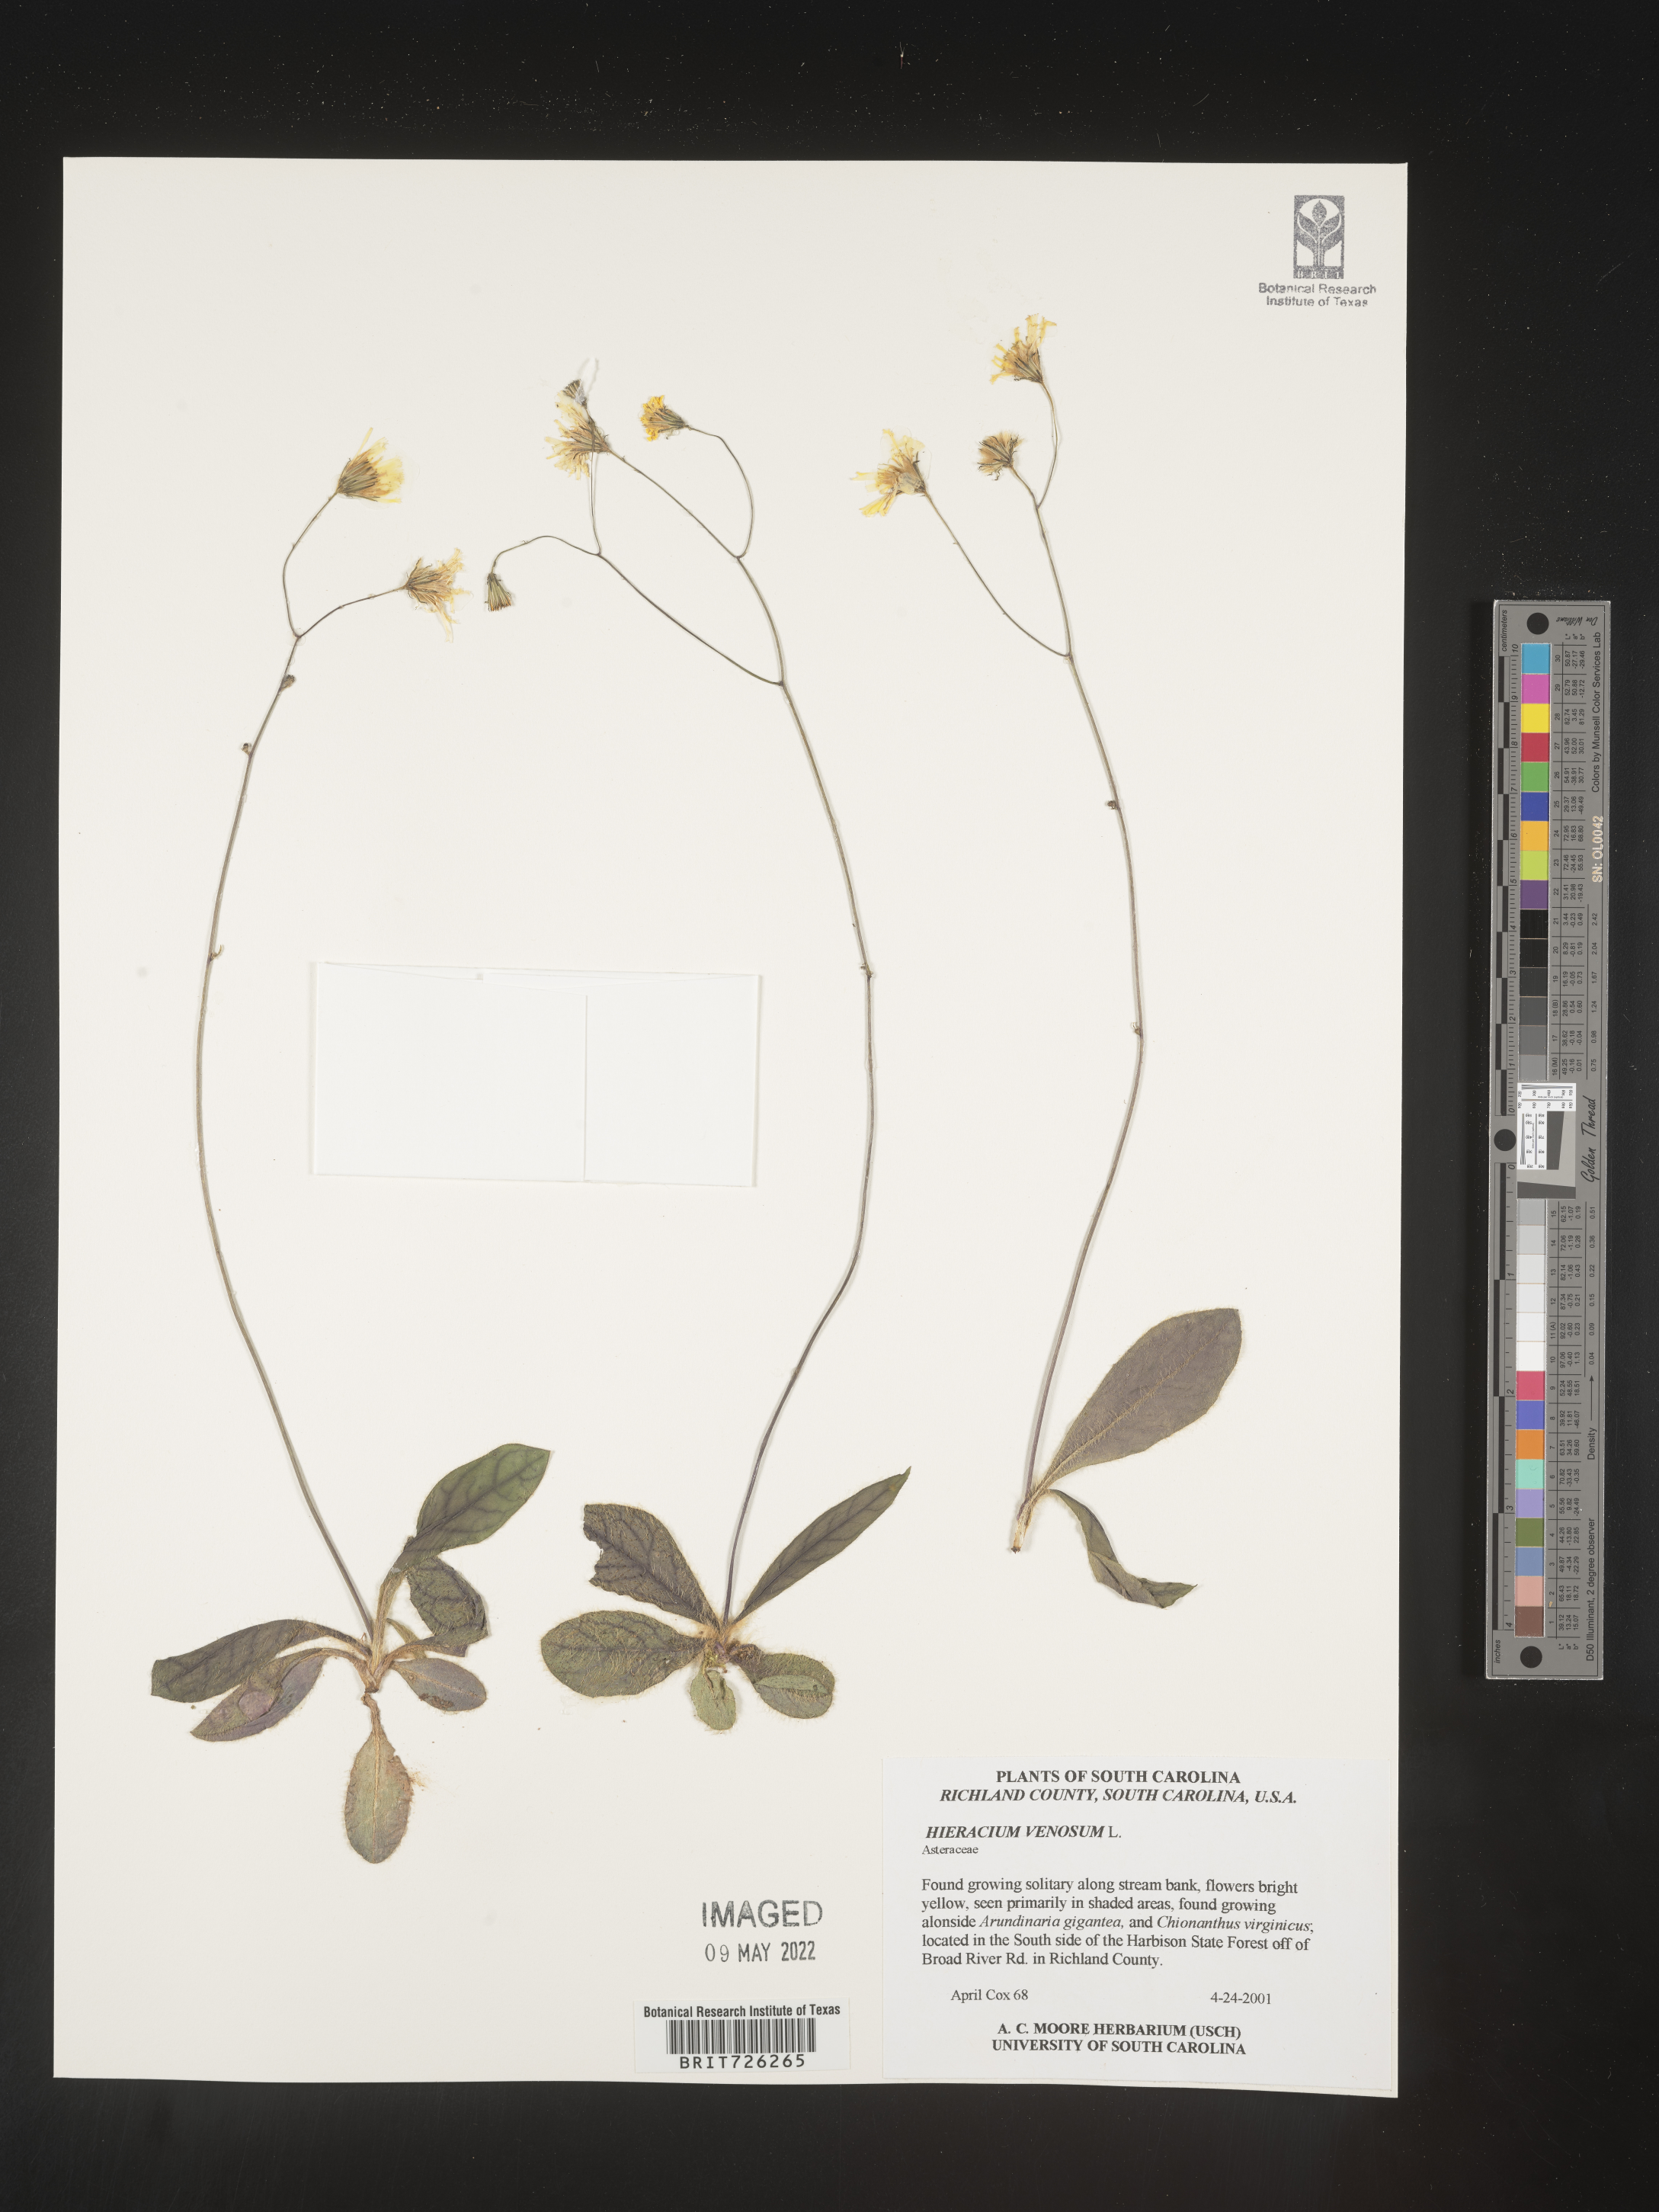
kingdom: Plantae
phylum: Tracheophyta
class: Magnoliopsida
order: Asterales
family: Asteraceae
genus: Hieracium
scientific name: Hieracium
